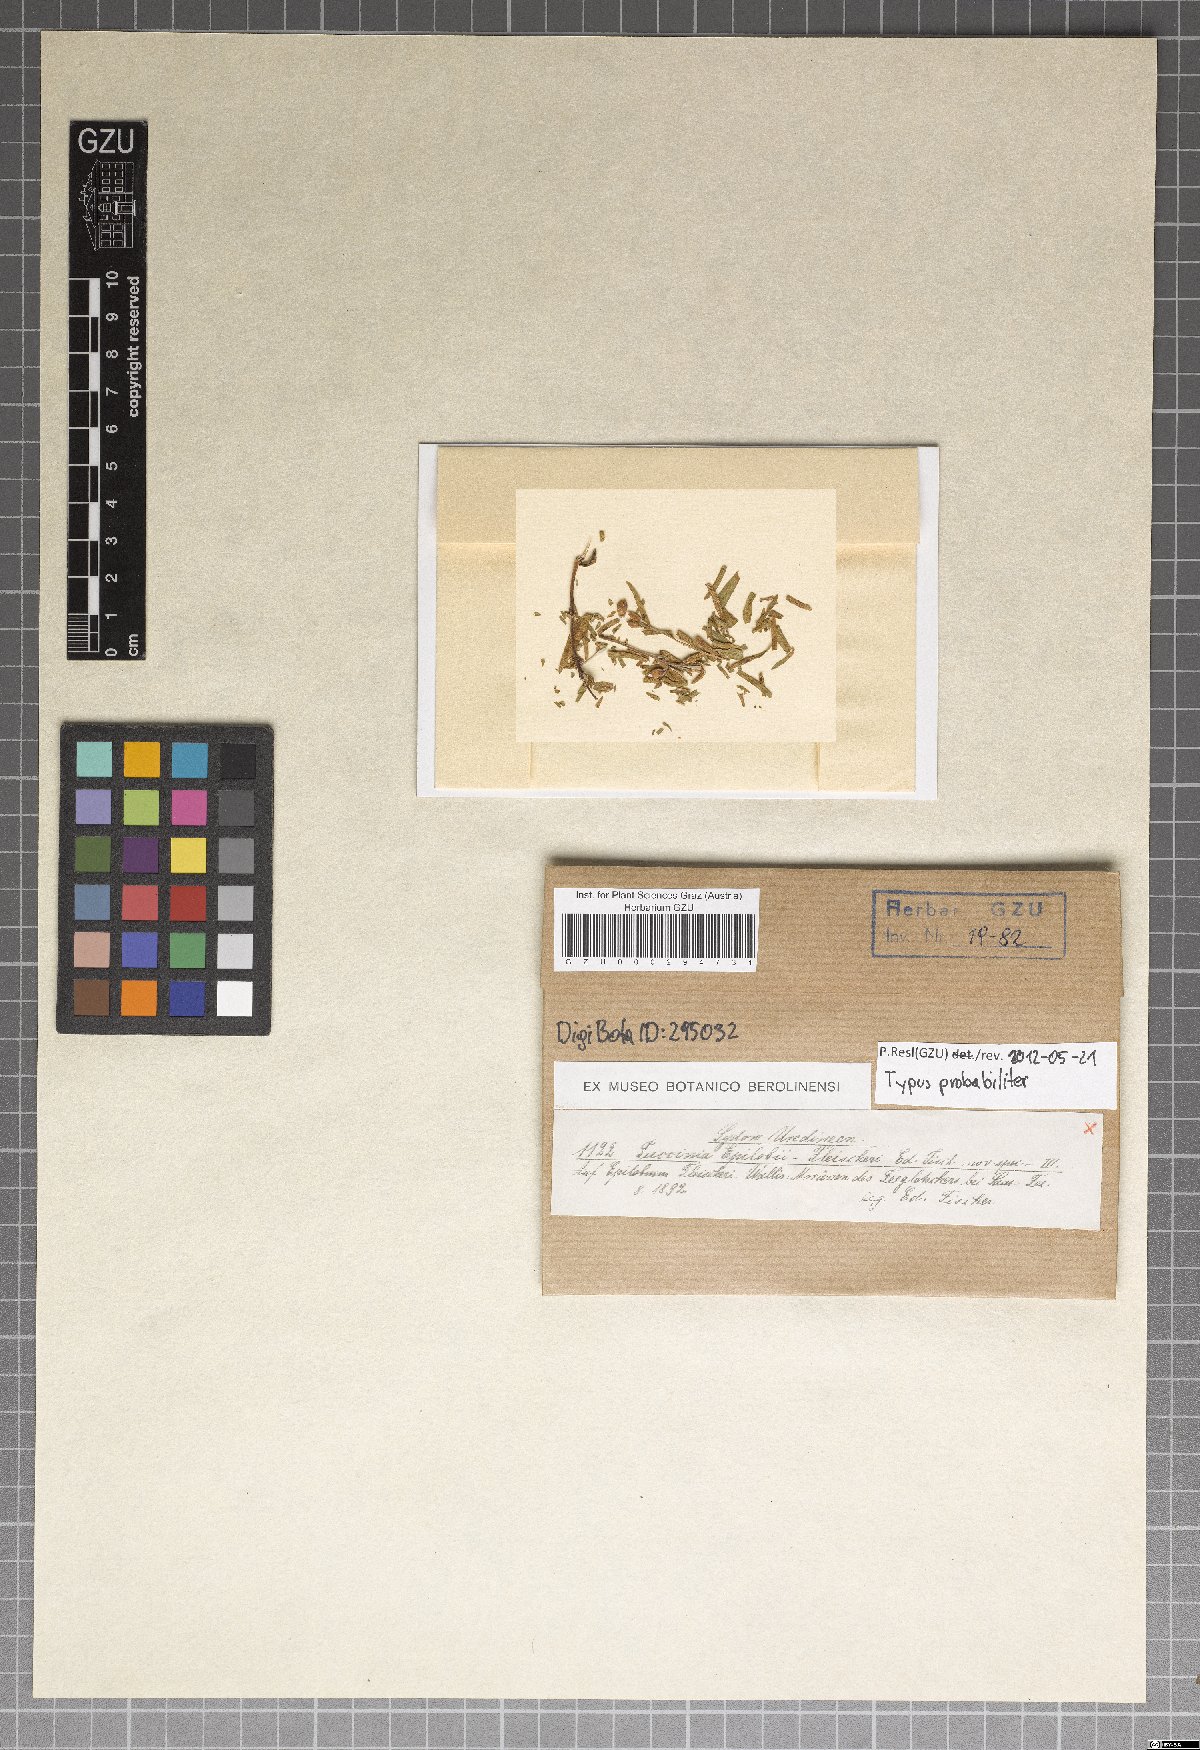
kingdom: Fungi
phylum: Basidiomycota
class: Pucciniomycetes
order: Pucciniales
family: Pucciniaceae
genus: Puccinia
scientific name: Puccinia epilobii-fleischeri
